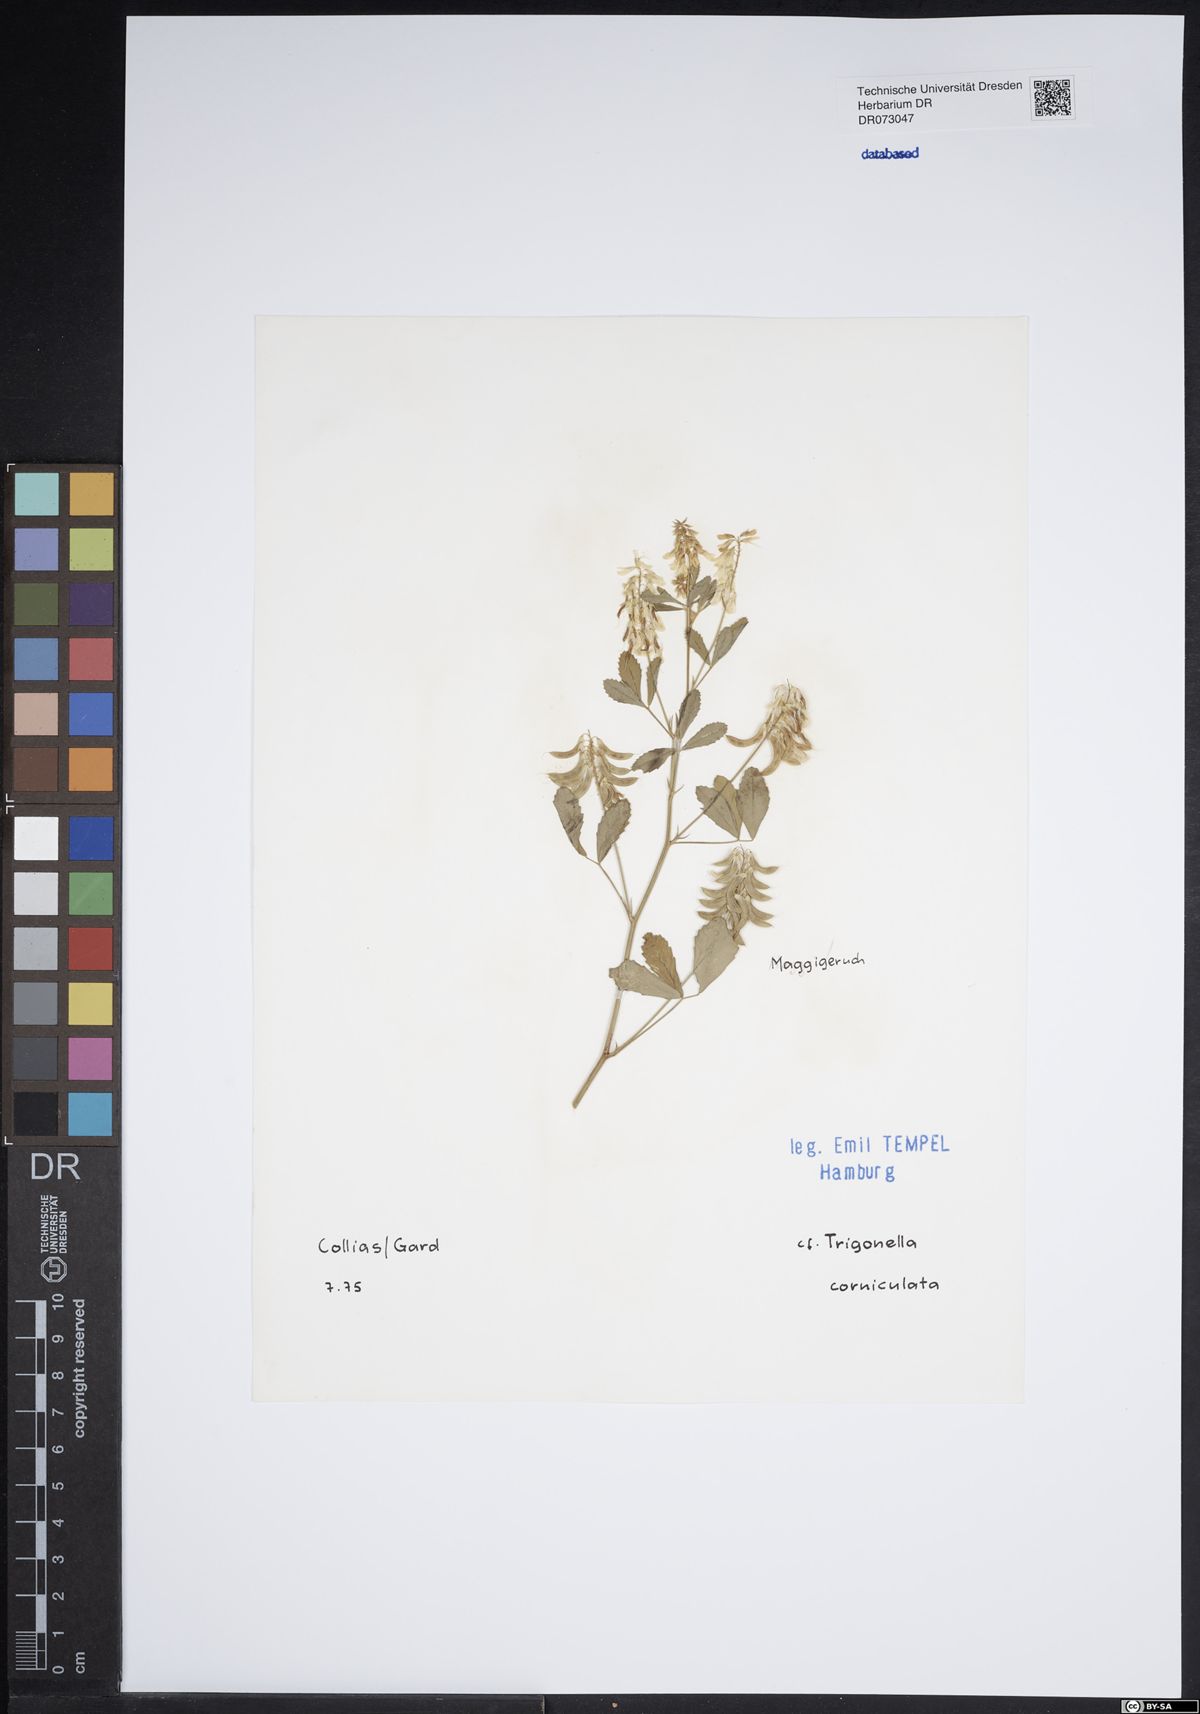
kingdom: Plantae
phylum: Tracheophyta
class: Magnoliopsida
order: Fabales
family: Fabaceae
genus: Trigonella
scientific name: Trigonella balansae
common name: Sickle-fruited fenugreek
